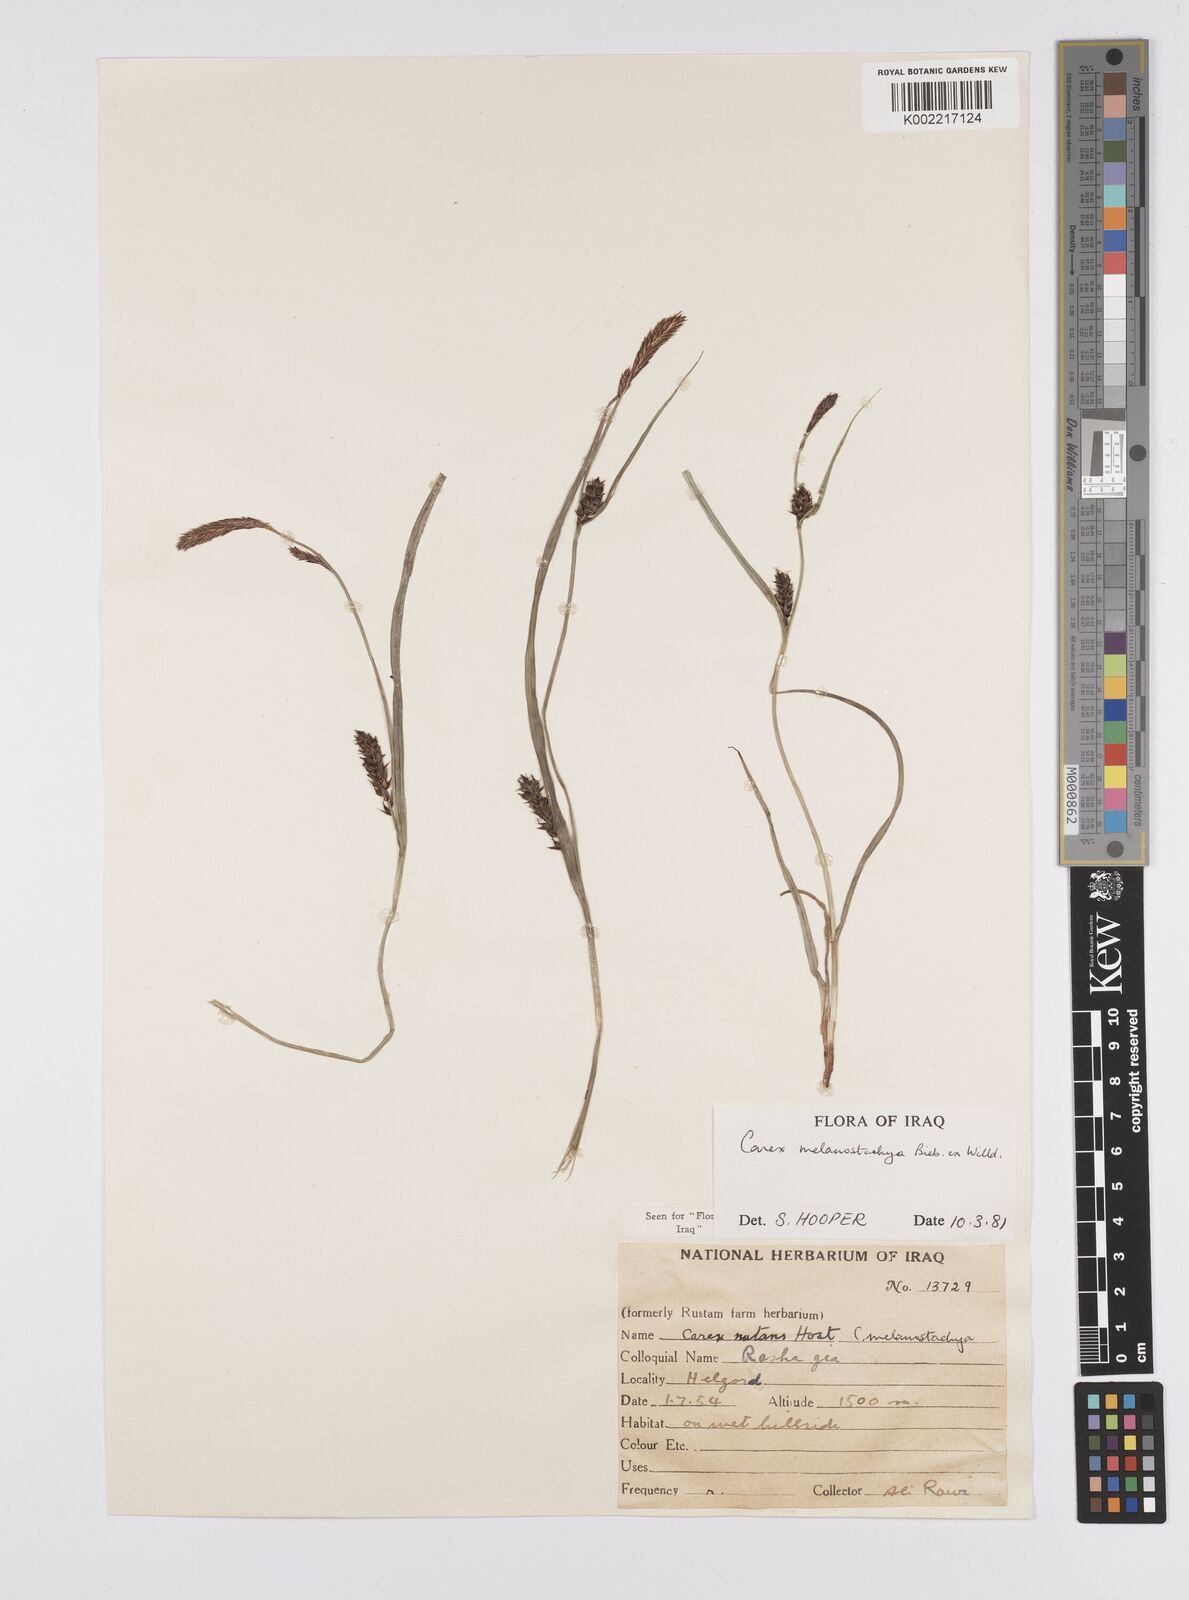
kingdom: Plantae
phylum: Tracheophyta
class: Liliopsida
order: Poales
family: Cyperaceae
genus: Carex
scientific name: Carex melanostachya
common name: Black-spiked sedge
